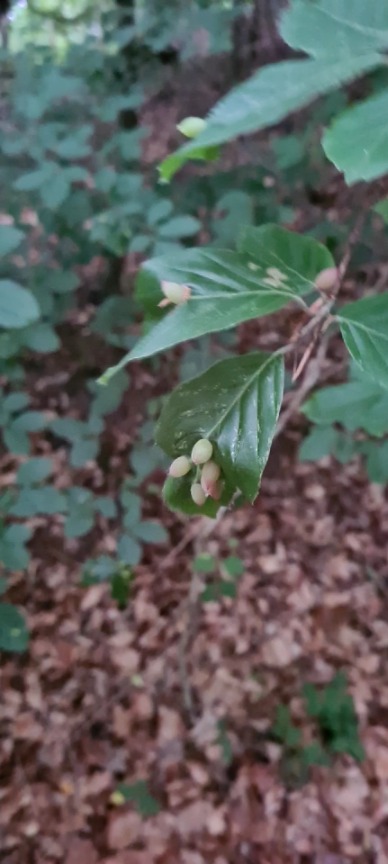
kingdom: Animalia
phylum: Arthropoda
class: Insecta
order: Diptera
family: Cecidomyiidae
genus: Mikiola
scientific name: Mikiola fagi
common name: Bøgegalmyg
